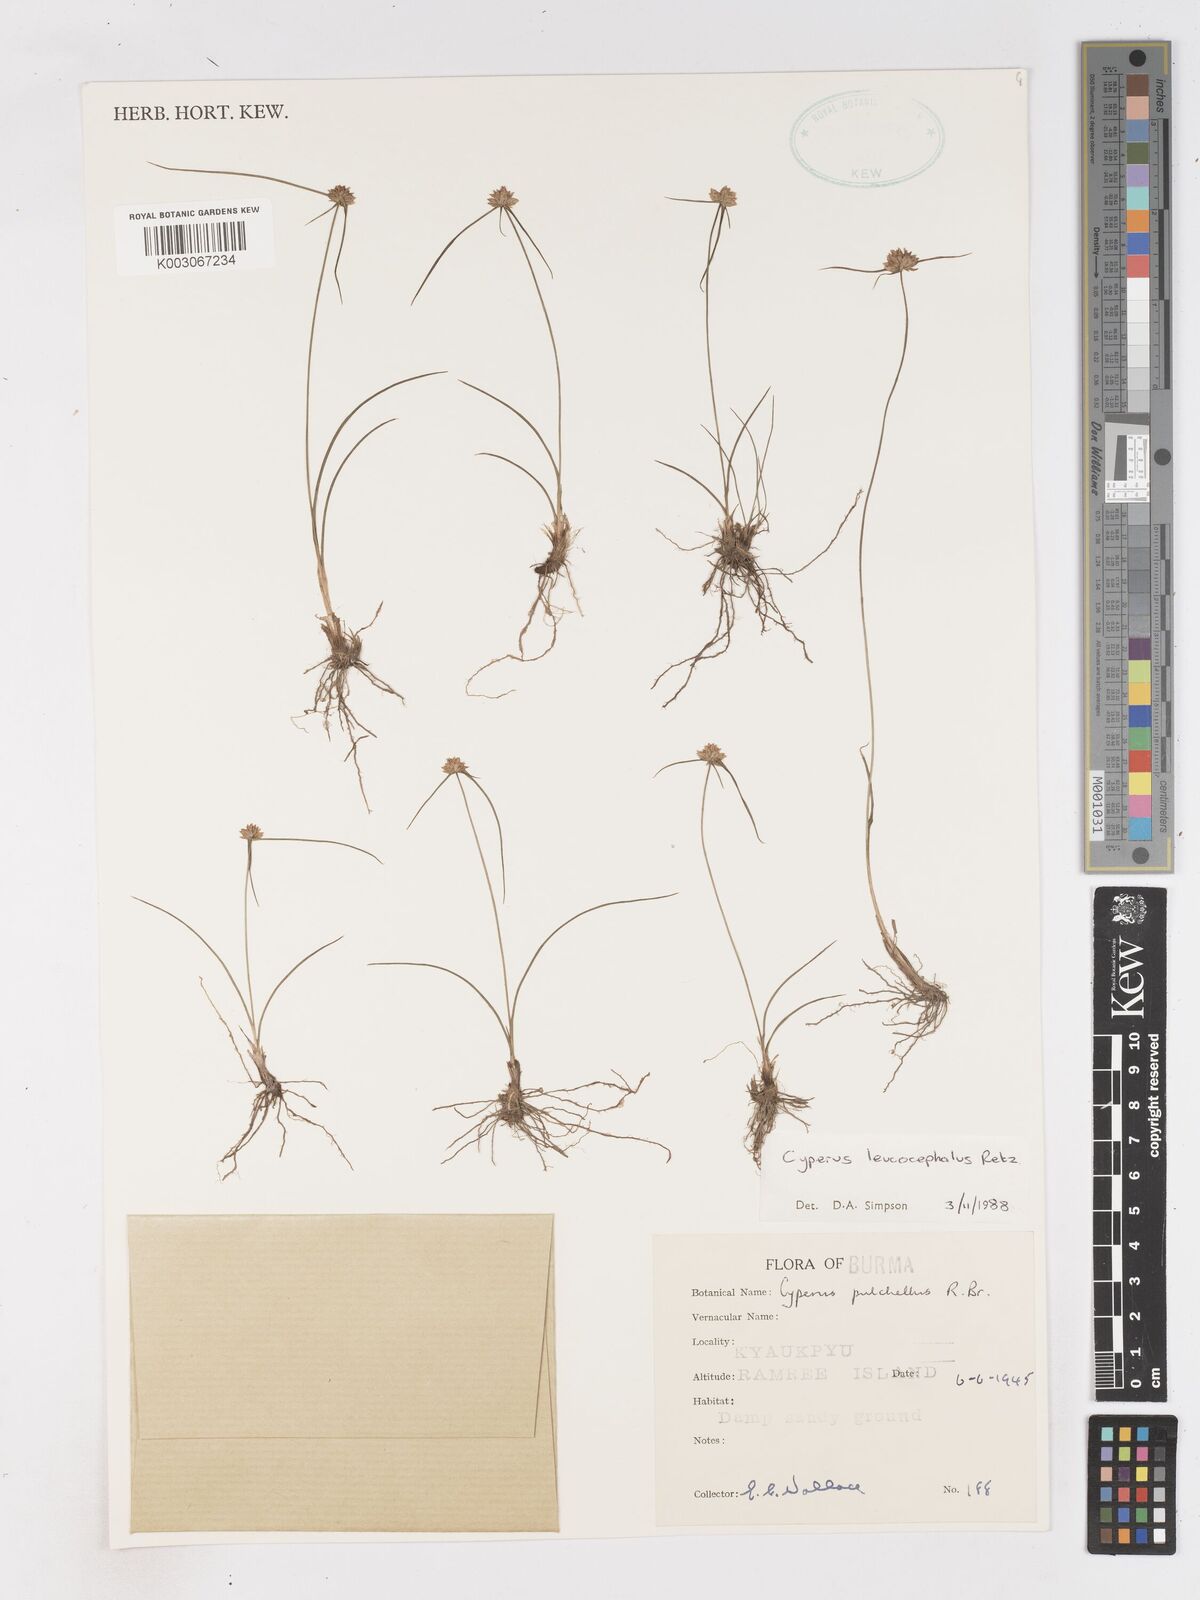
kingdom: Plantae
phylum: Tracheophyta
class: Liliopsida
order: Poales
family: Cyperaceae
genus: Cyperus
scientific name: Cyperus leucocephalus
